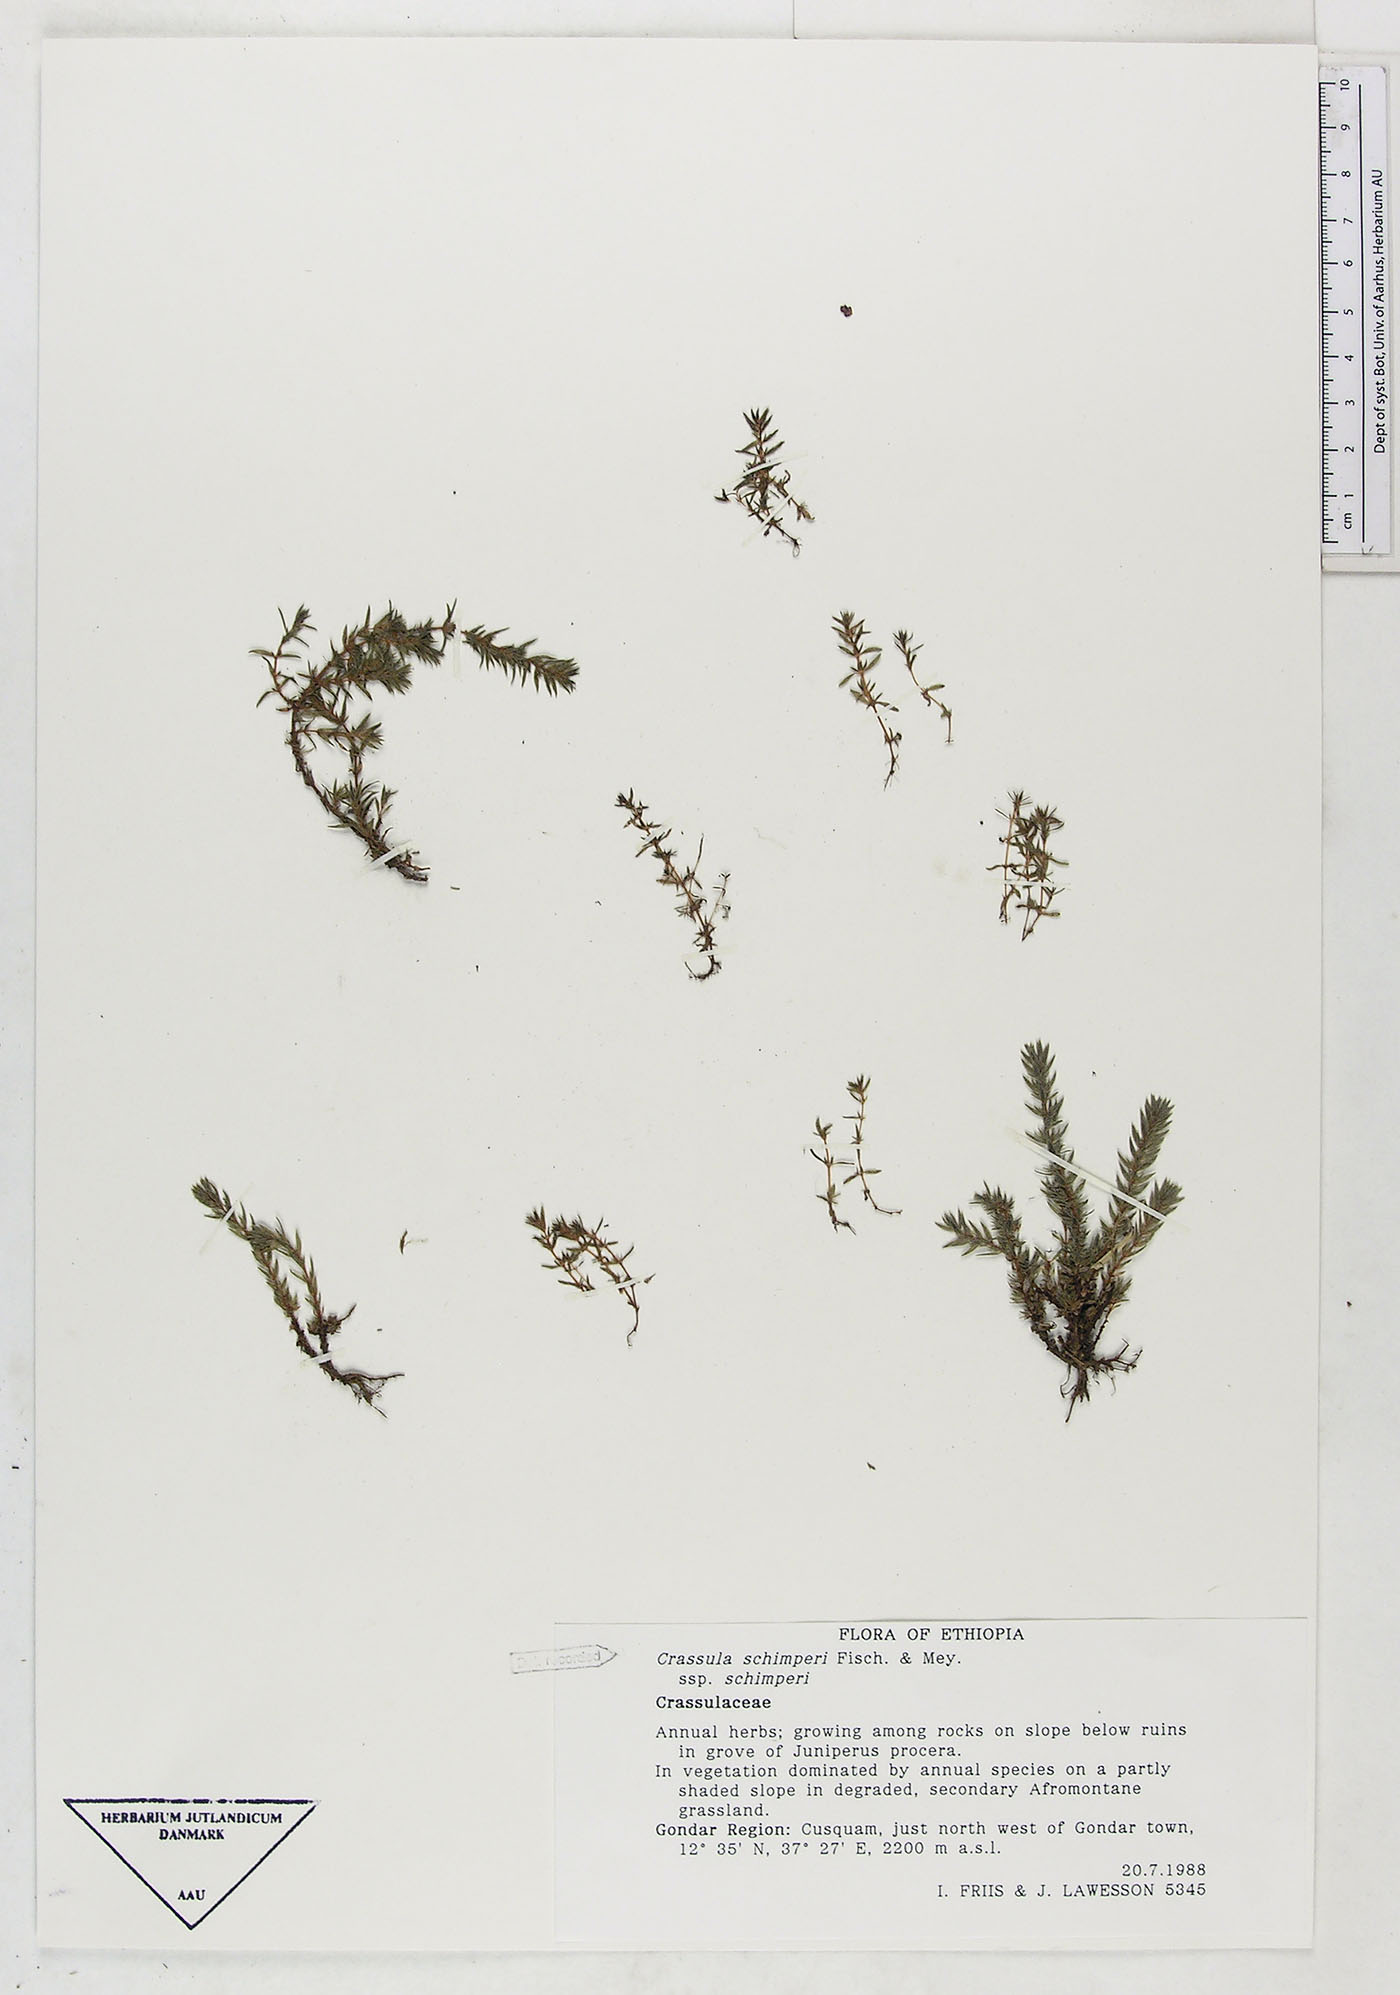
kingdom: Plantae
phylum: Tracheophyta
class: Magnoliopsida
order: Saxifragales
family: Crassulaceae
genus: Crassula
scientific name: Crassula schimperi
